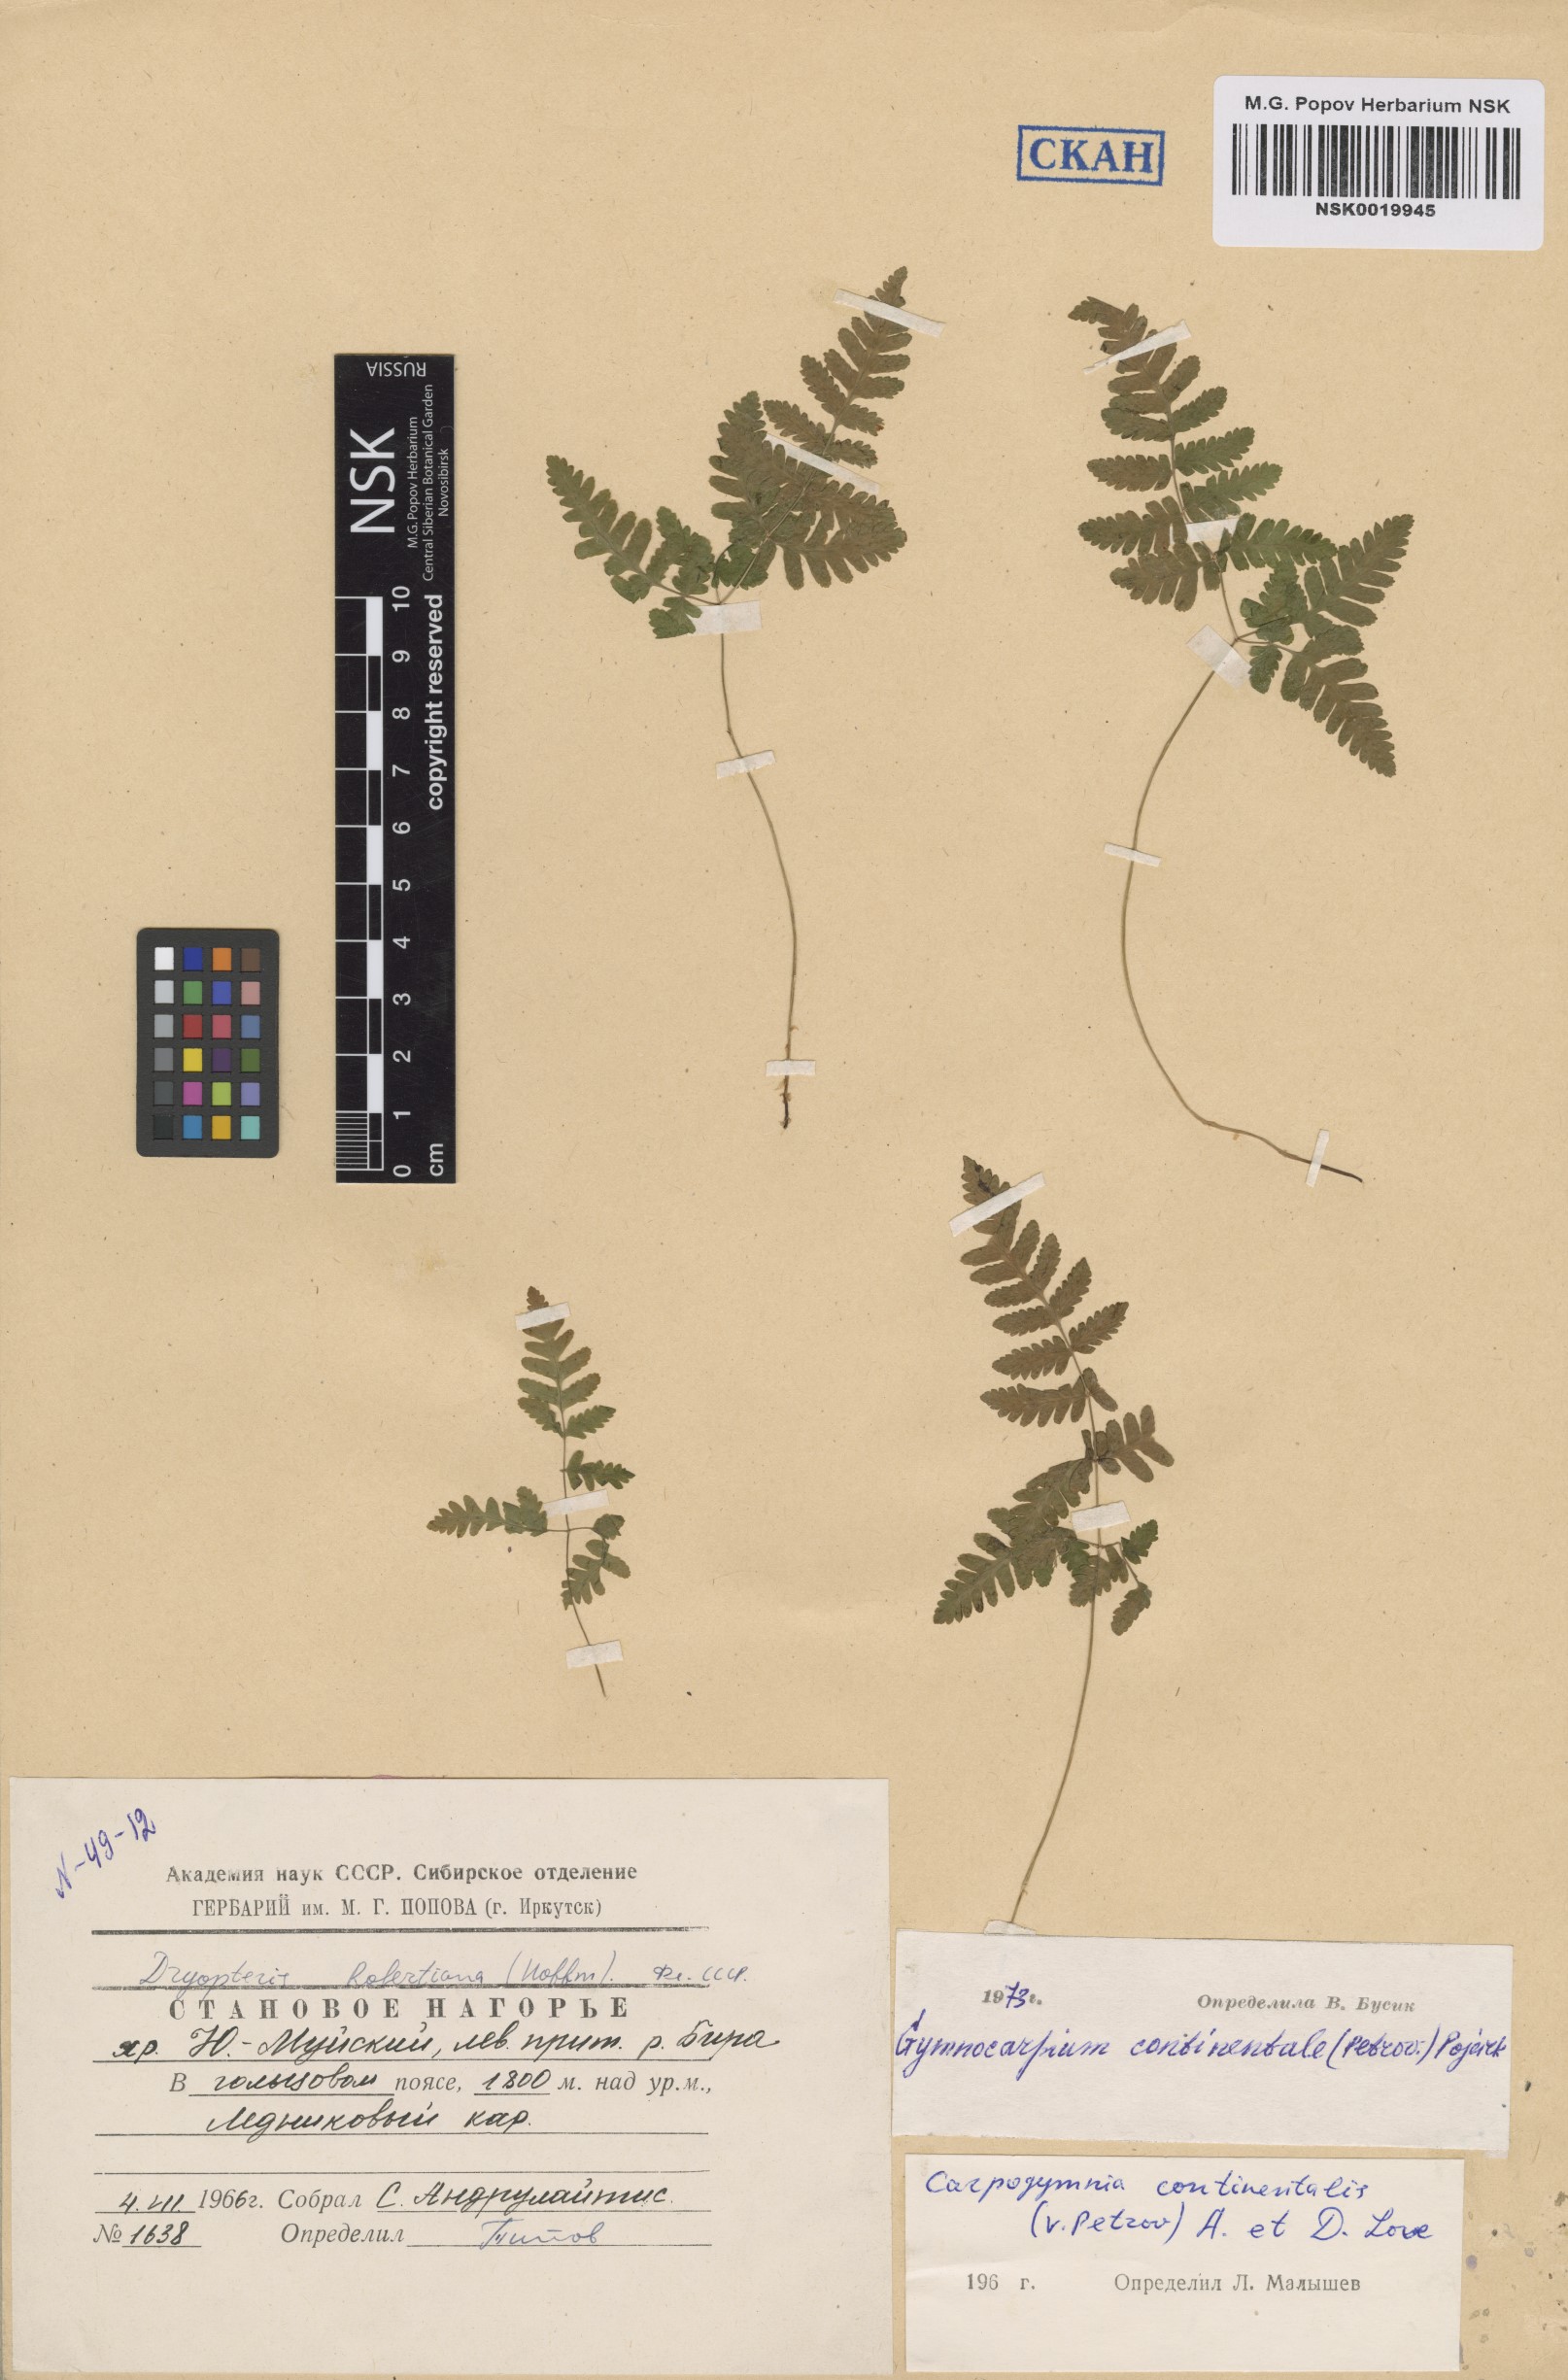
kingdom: Plantae
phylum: Tracheophyta
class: Polypodiopsida
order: Polypodiales
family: Cystopteridaceae
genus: Gymnocarpium
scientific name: Gymnocarpium continentale
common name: Asian oak fern
